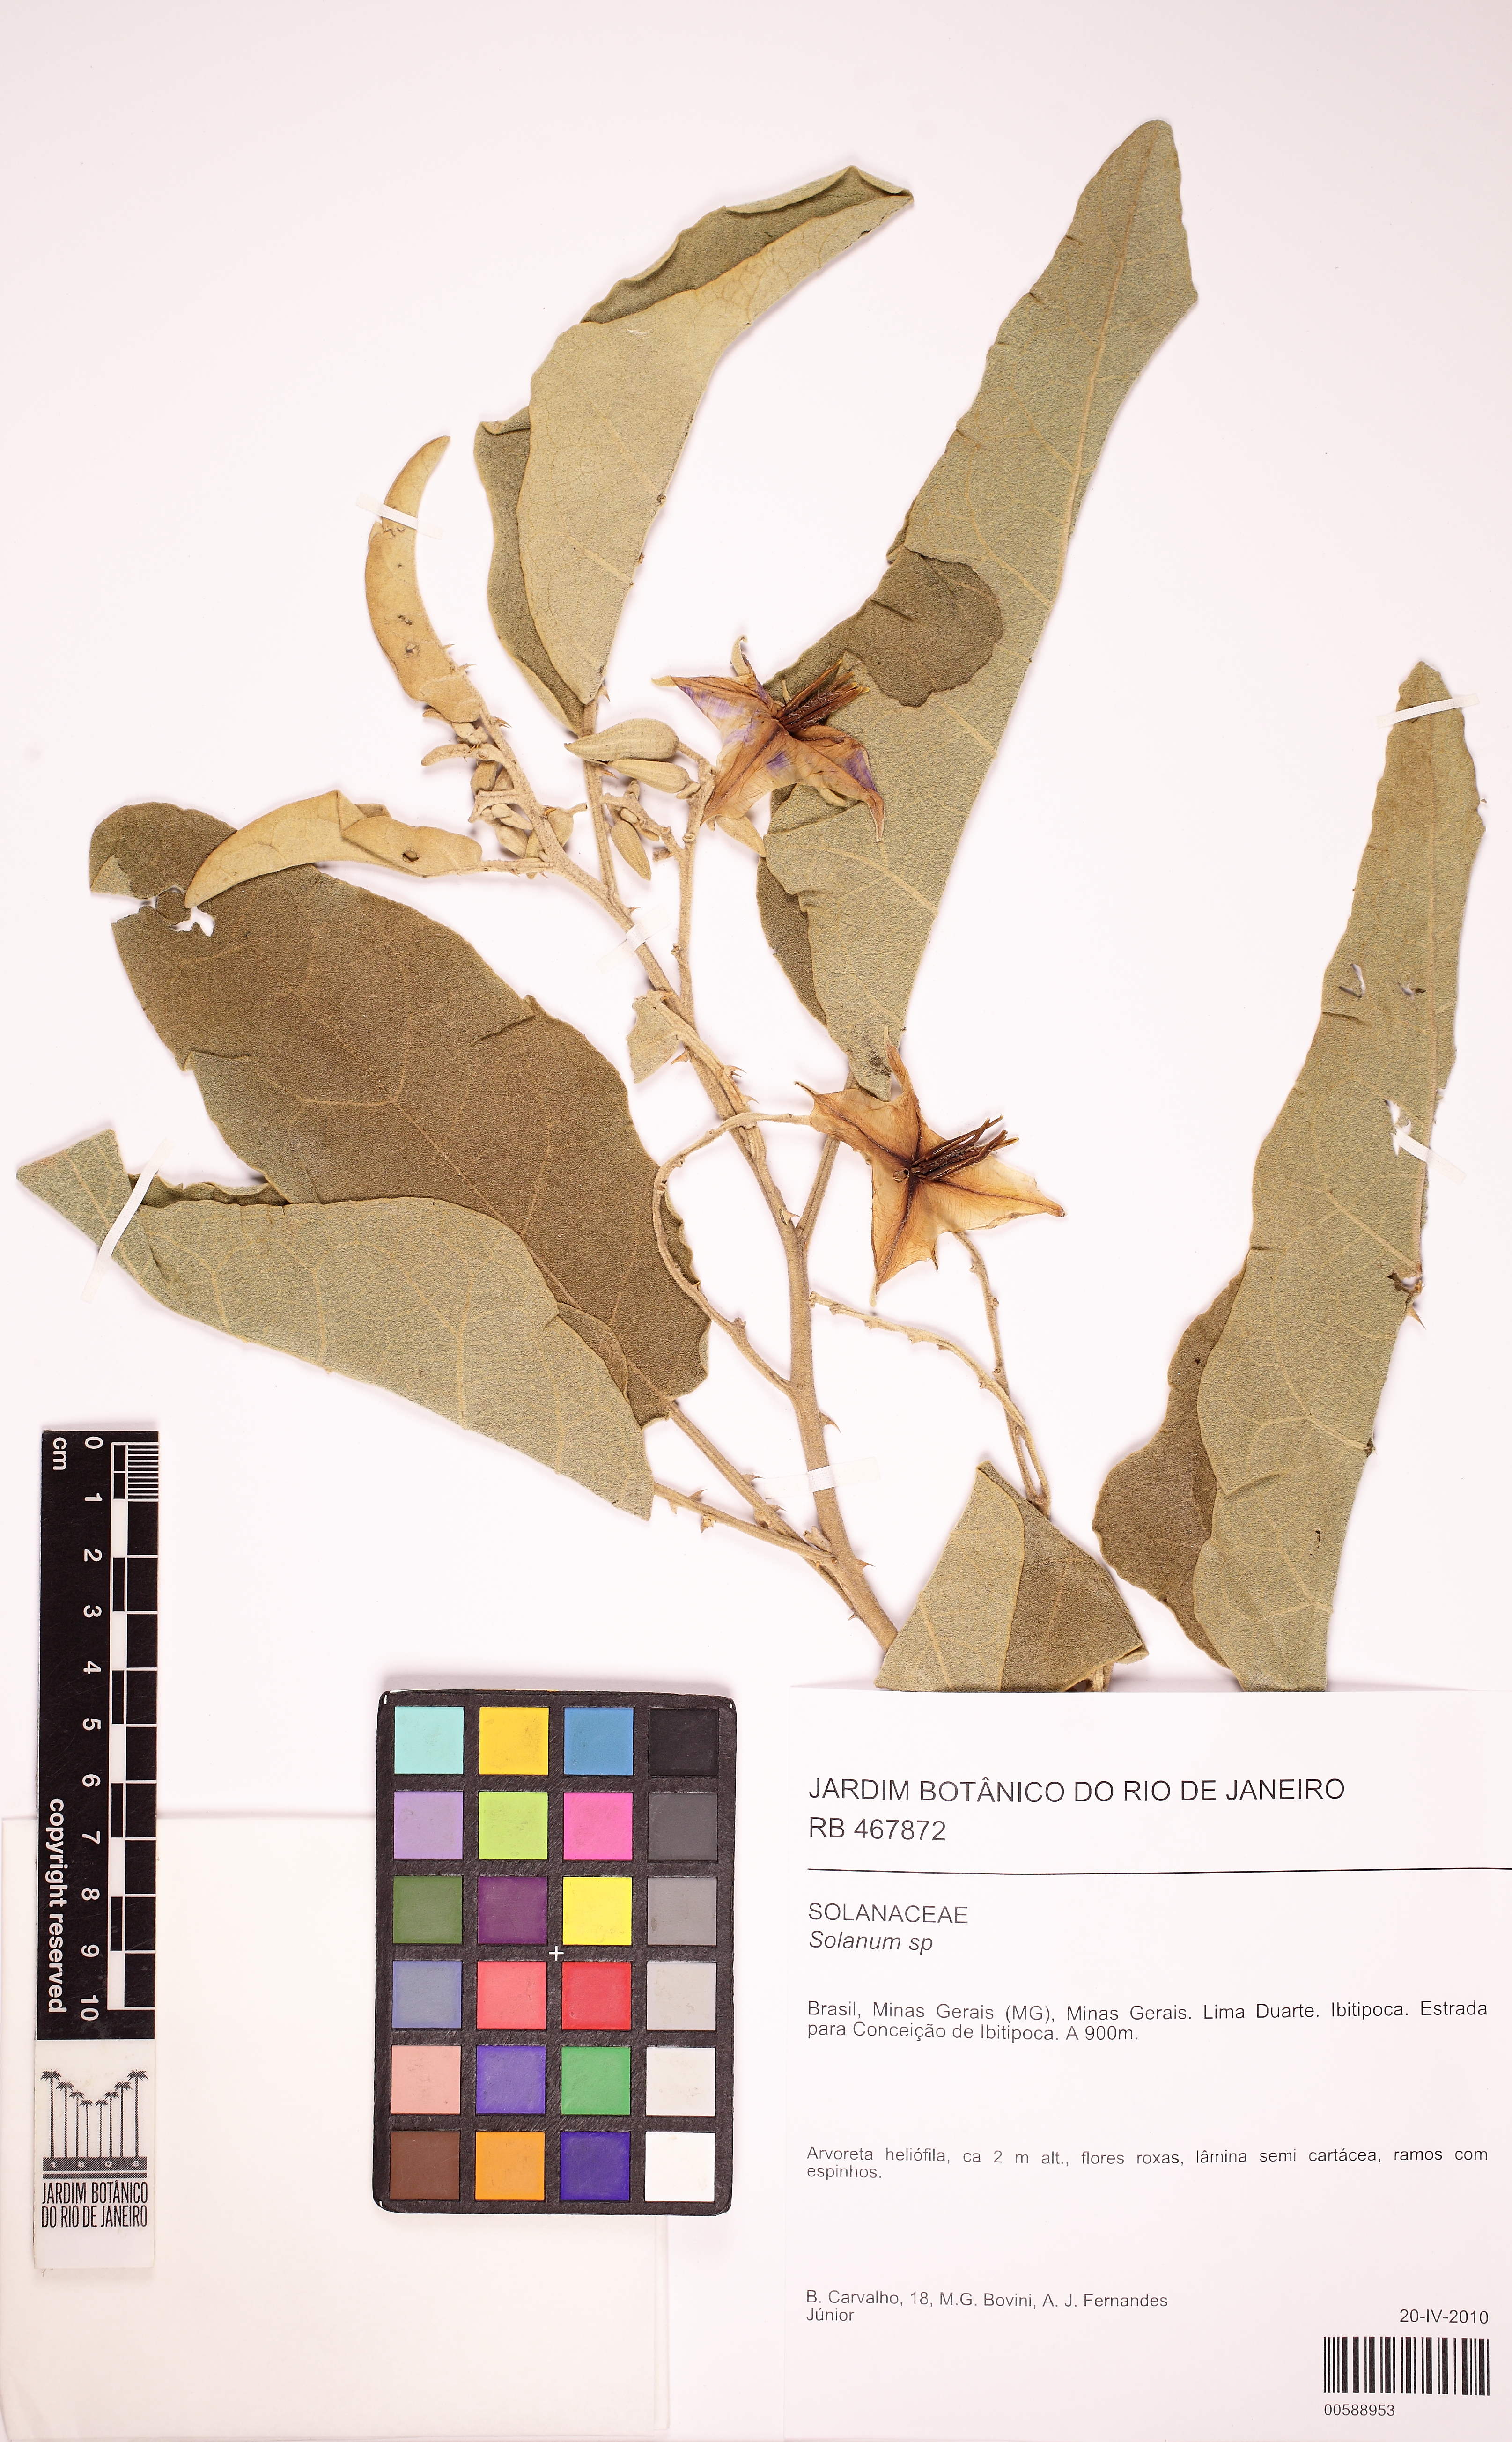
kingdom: Plantae
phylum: Tracheophyta
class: Magnoliopsida
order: Solanales
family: Solanaceae
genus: Solanum
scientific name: Solanum lycocarpum
